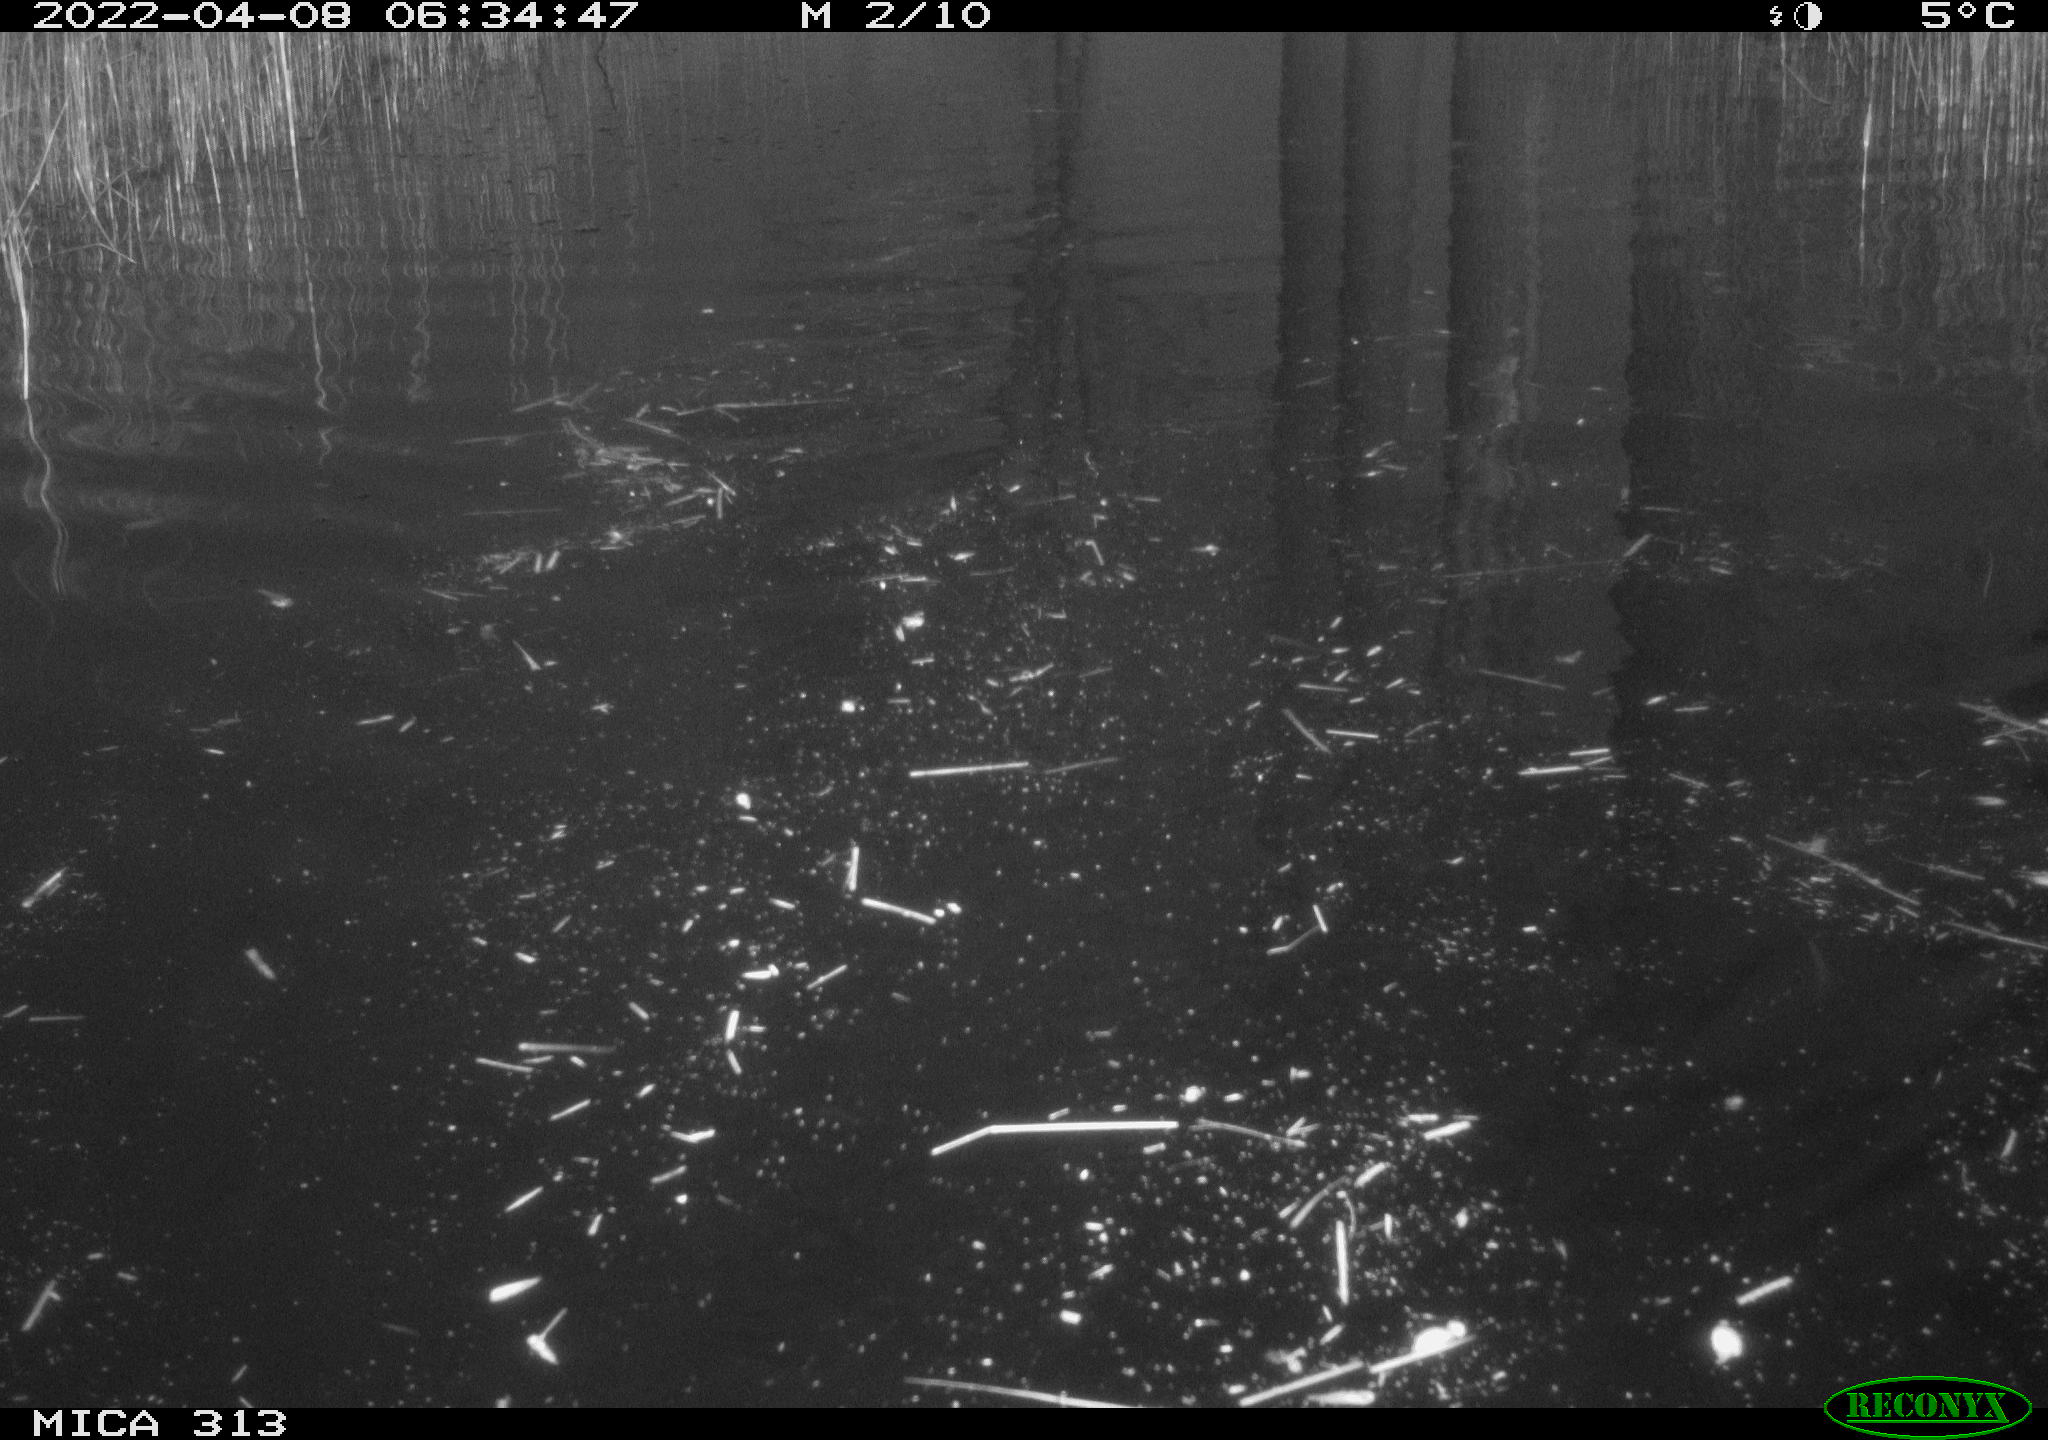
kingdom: Animalia
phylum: Chordata
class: Aves
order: Anseriformes
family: Anatidae
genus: Anas
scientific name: Anas platyrhynchos
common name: Mallard
